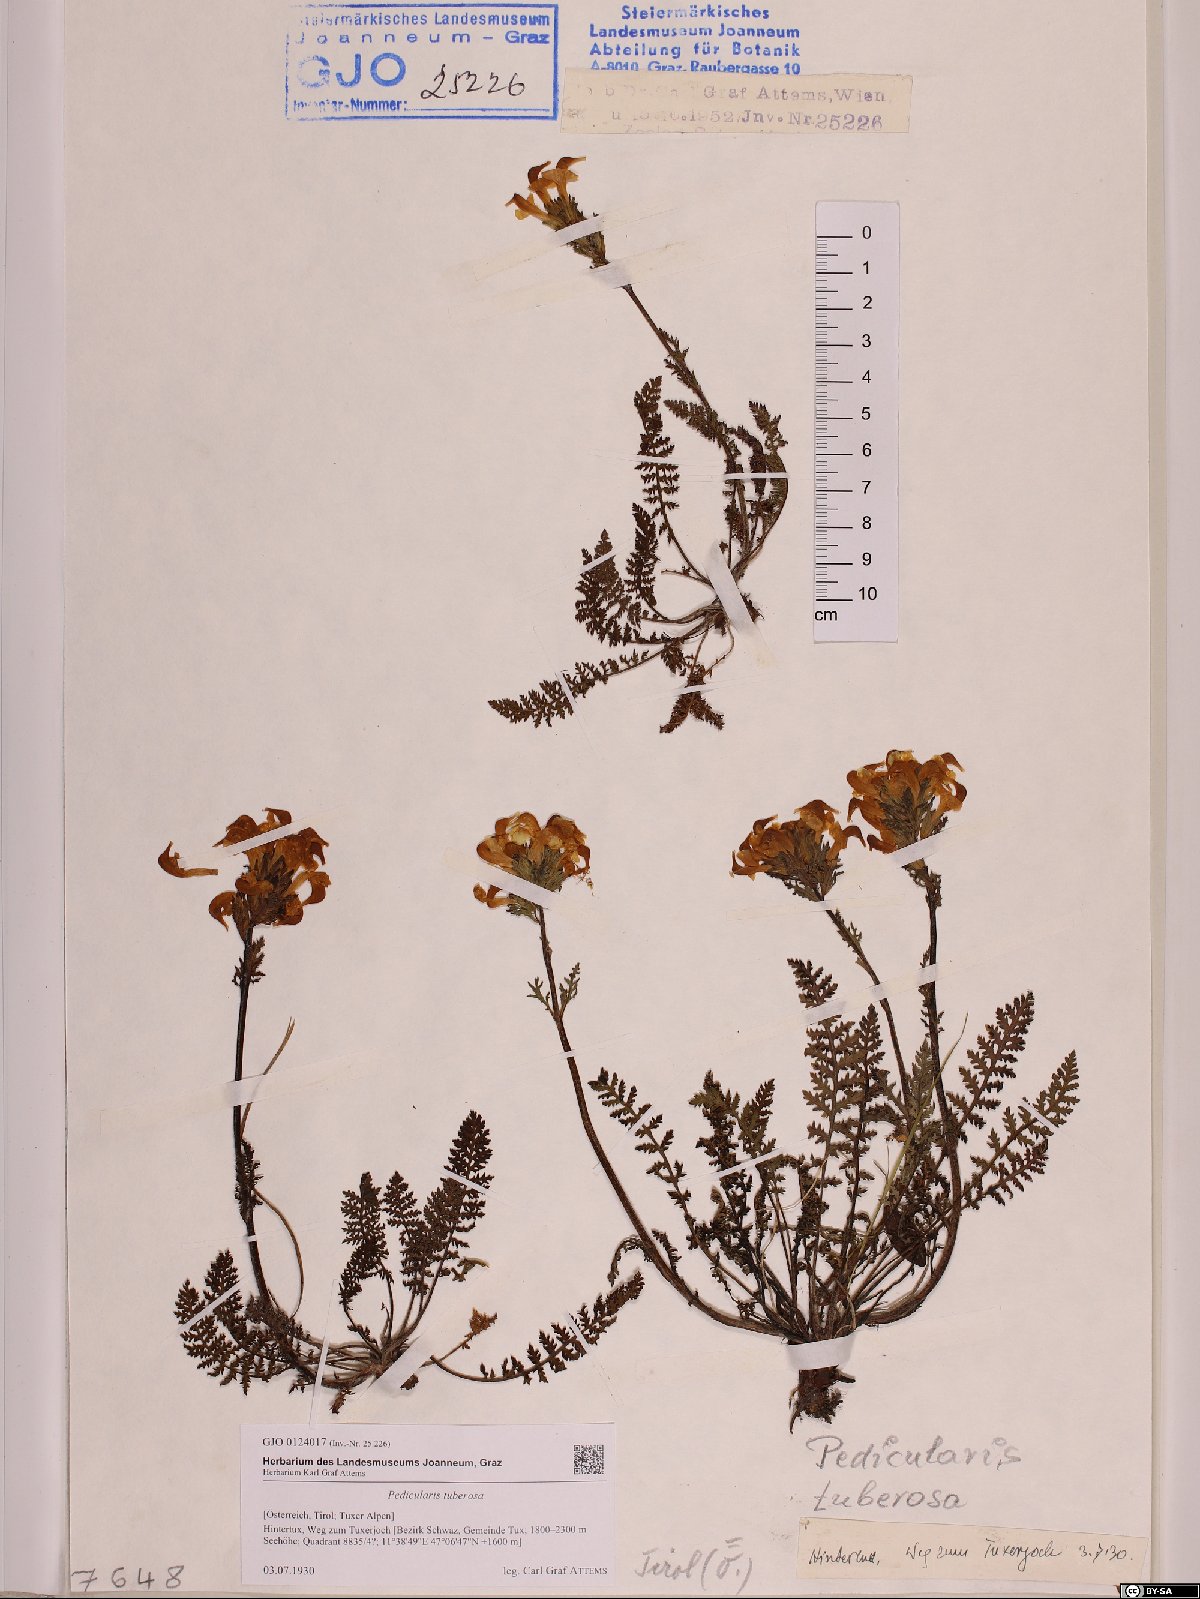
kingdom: Plantae
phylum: Tracheophyta
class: Magnoliopsida
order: Lamiales
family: Orobanchaceae
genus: Pedicularis
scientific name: Pedicularis tuberosa
